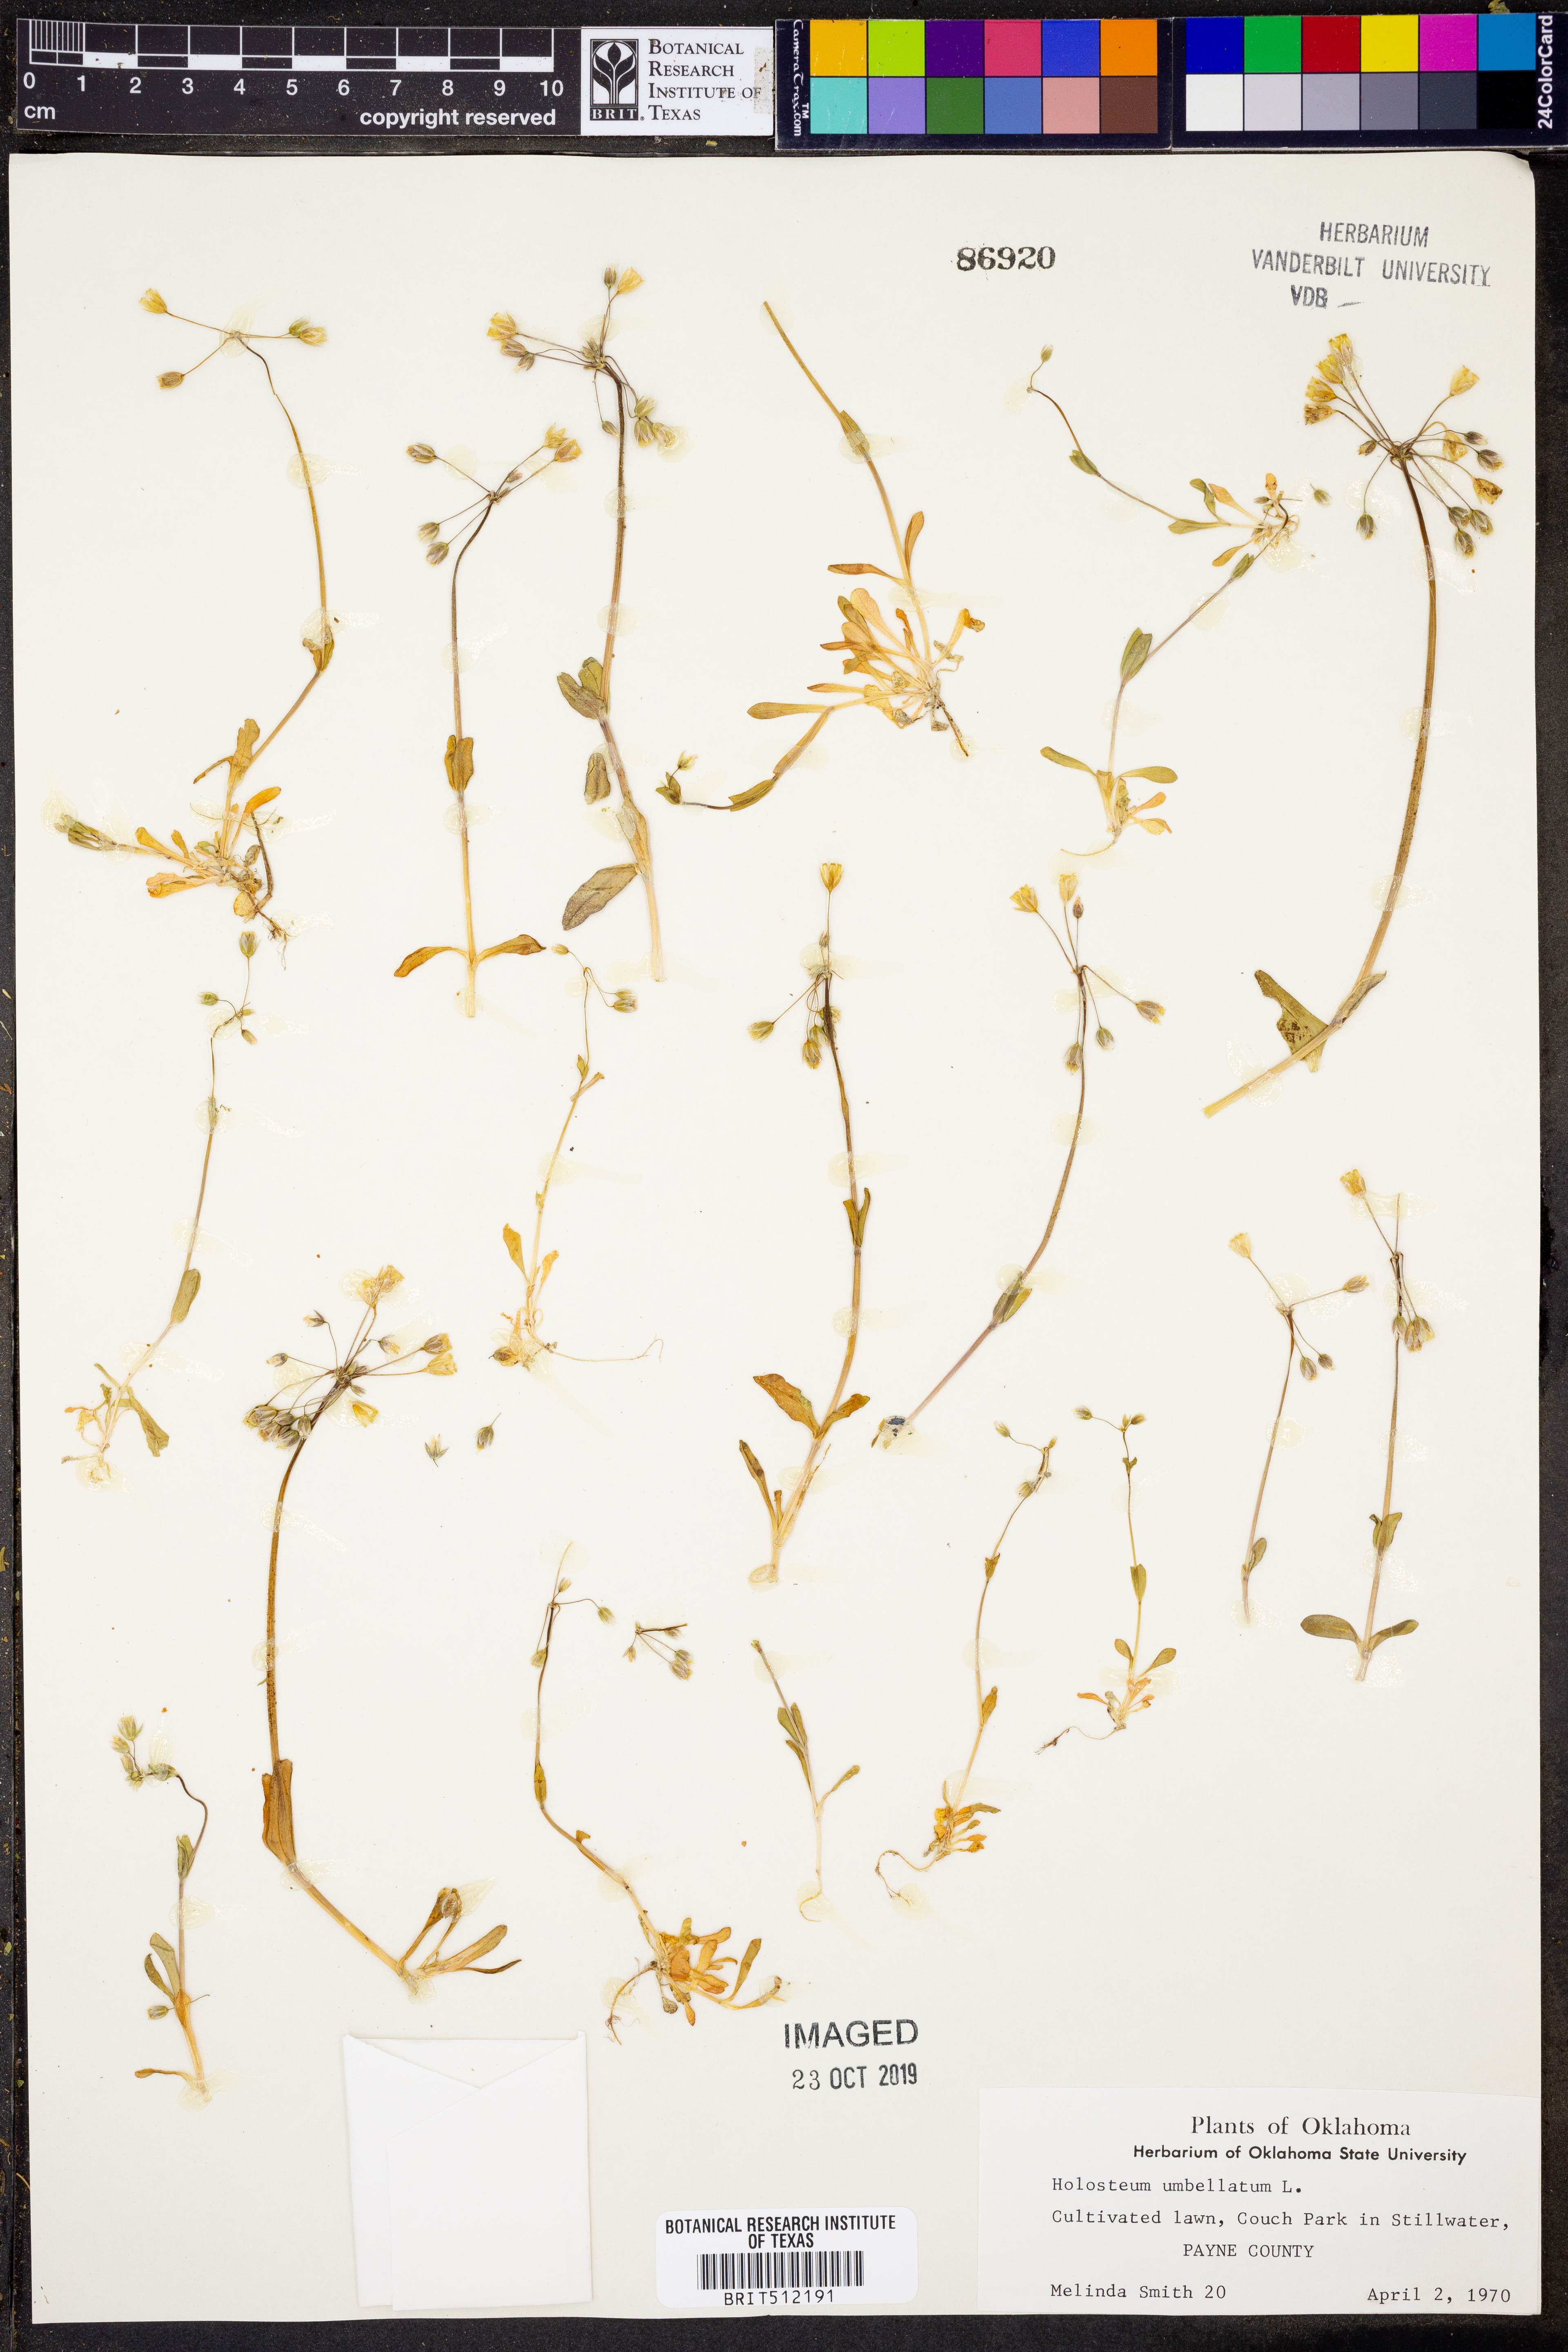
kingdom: Plantae
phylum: Tracheophyta
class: Magnoliopsida
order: Caryophyllales
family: Caryophyllaceae
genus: Holosteum
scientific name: Holosteum umbellatum
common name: Jagged chickweed
